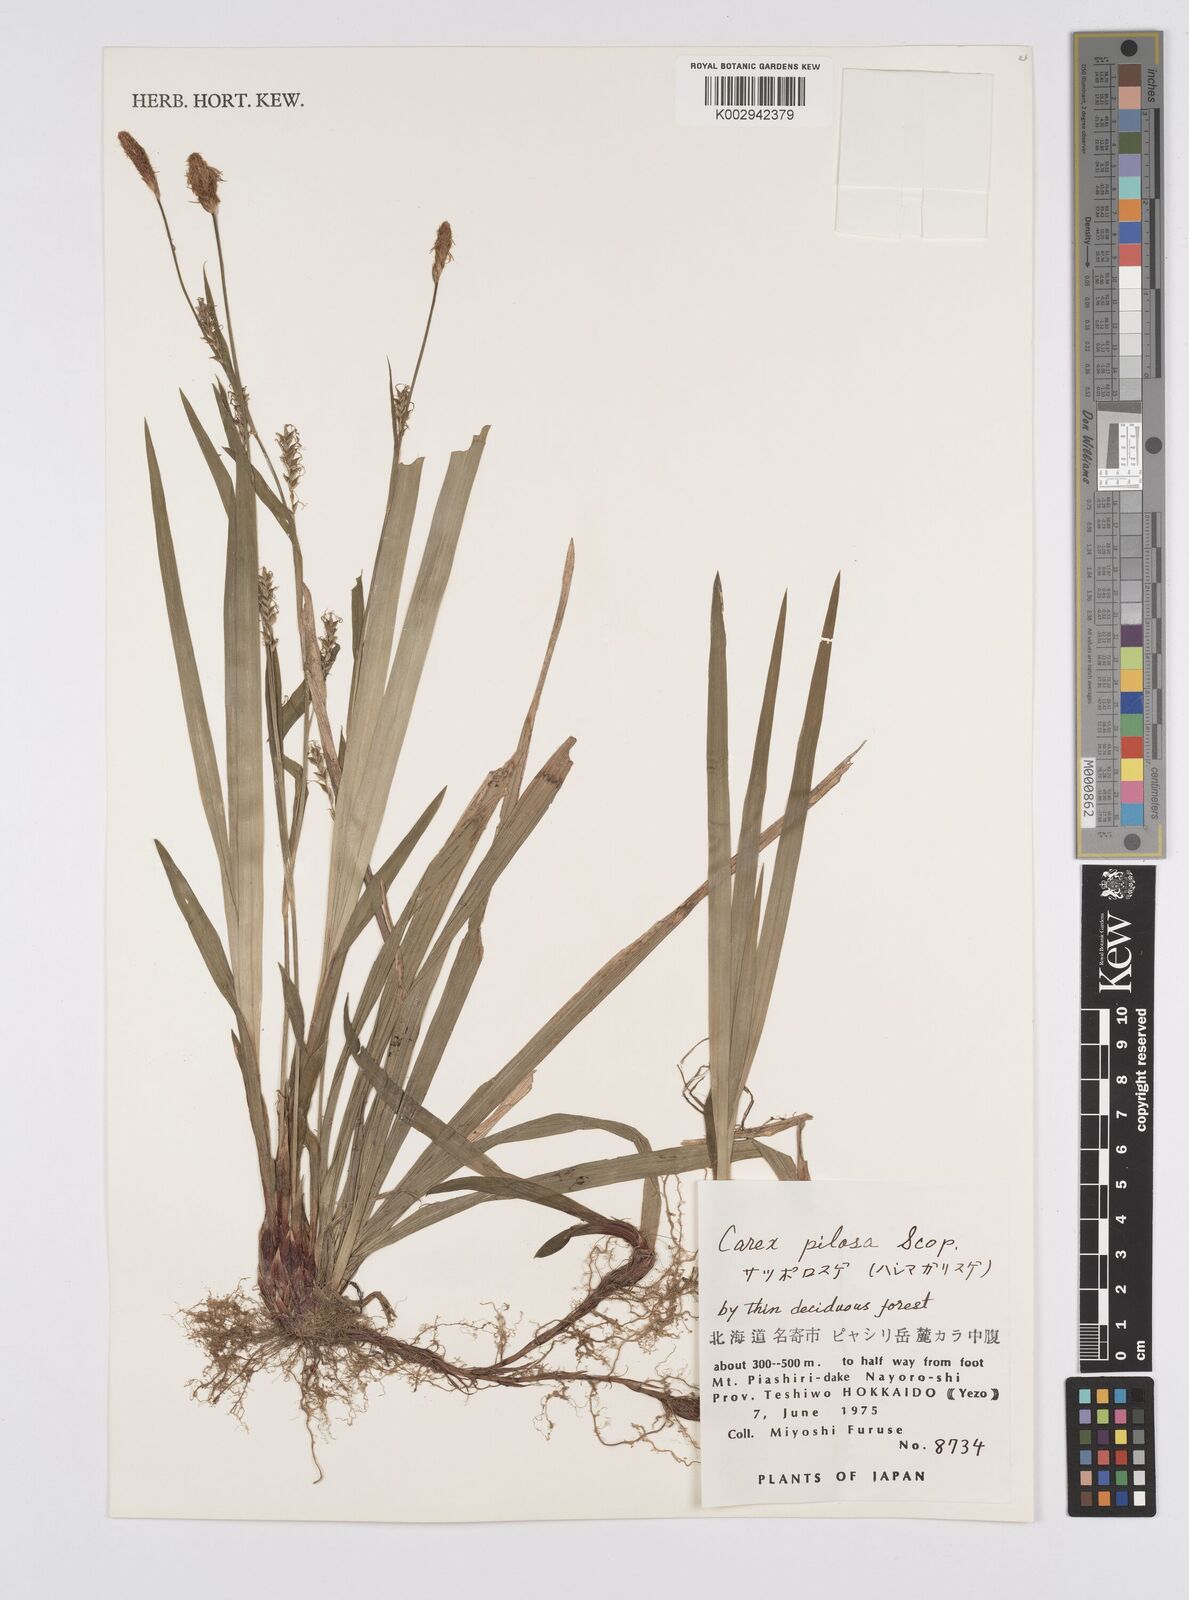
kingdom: Plantae
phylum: Tracheophyta
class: Liliopsida
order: Poales
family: Cyperaceae
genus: Carex
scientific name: Carex pilosa
